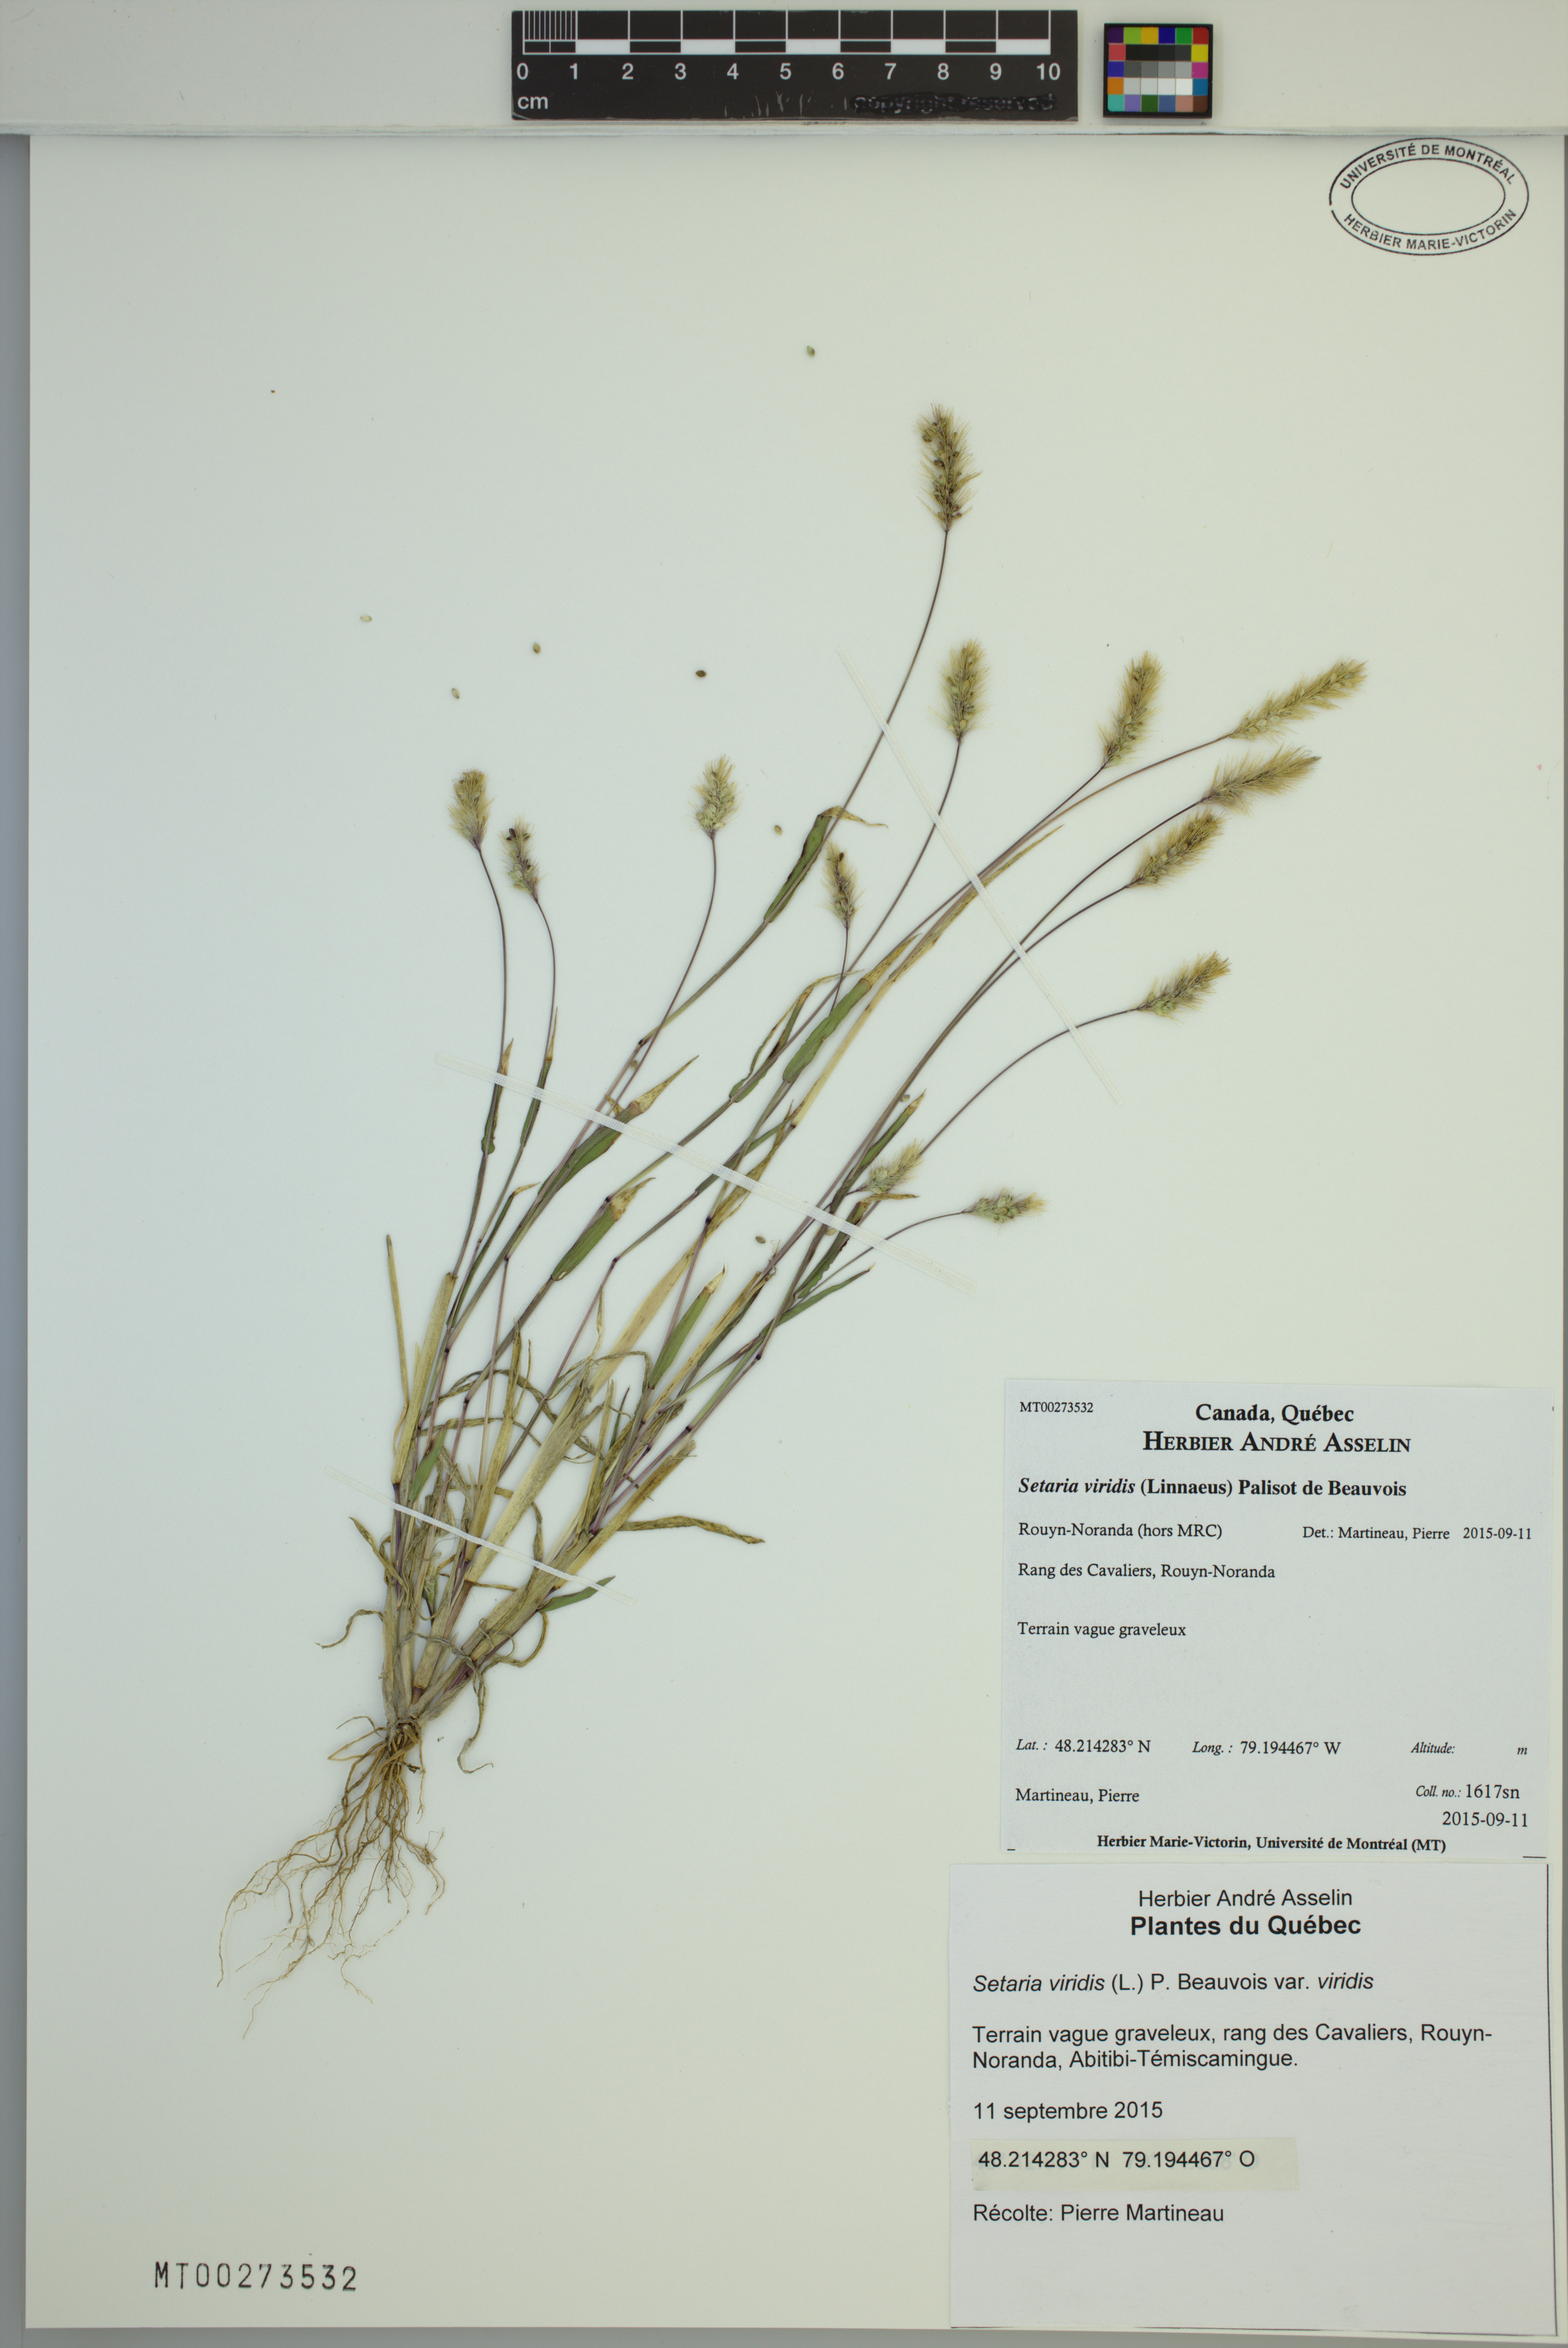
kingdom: Plantae
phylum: Tracheophyta
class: Liliopsida
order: Poales
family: Poaceae
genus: Setaria
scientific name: Setaria viridis
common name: Green bristlegrass
